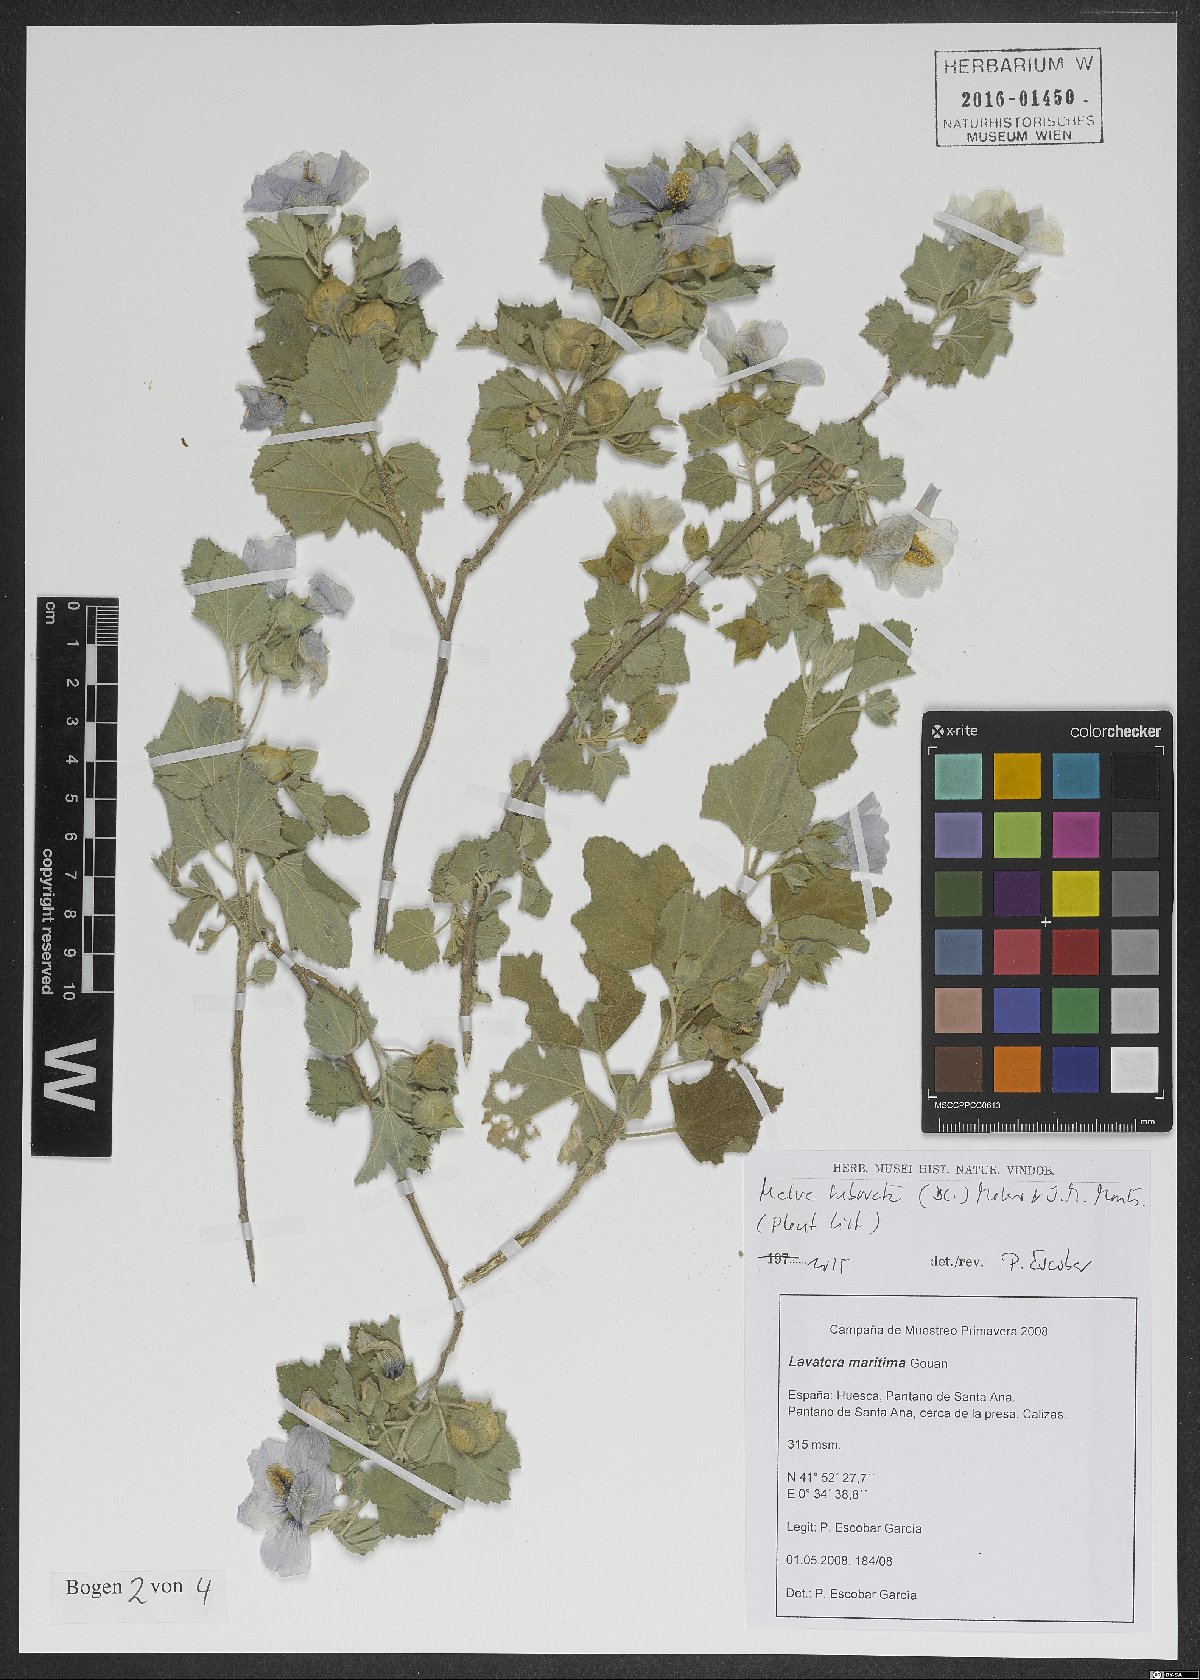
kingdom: Plantae
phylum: Tracheophyta
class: Magnoliopsida
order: Malvales
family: Malvaceae
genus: Malva
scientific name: Malva subovata
